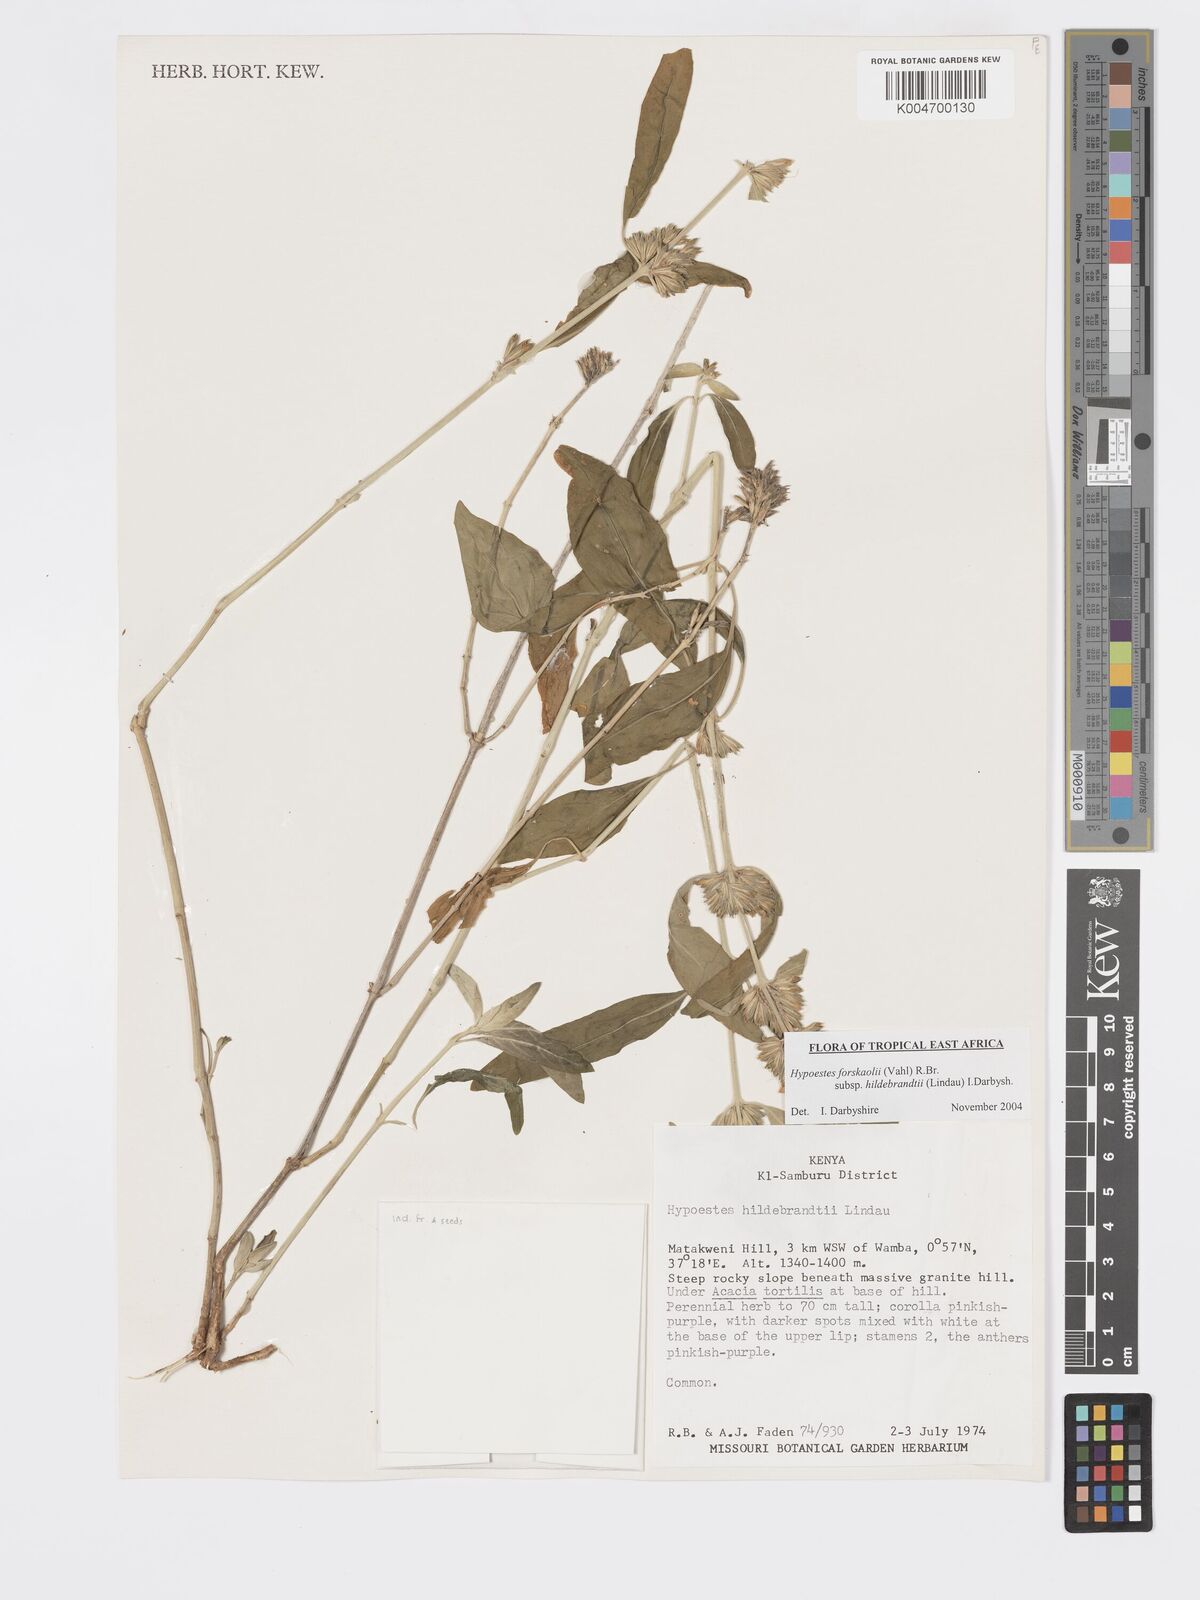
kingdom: Plantae
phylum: Tracheophyta
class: Magnoliopsida
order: Lamiales
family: Acanthaceae
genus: Hypoestes
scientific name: Hypoestes forskaolii
